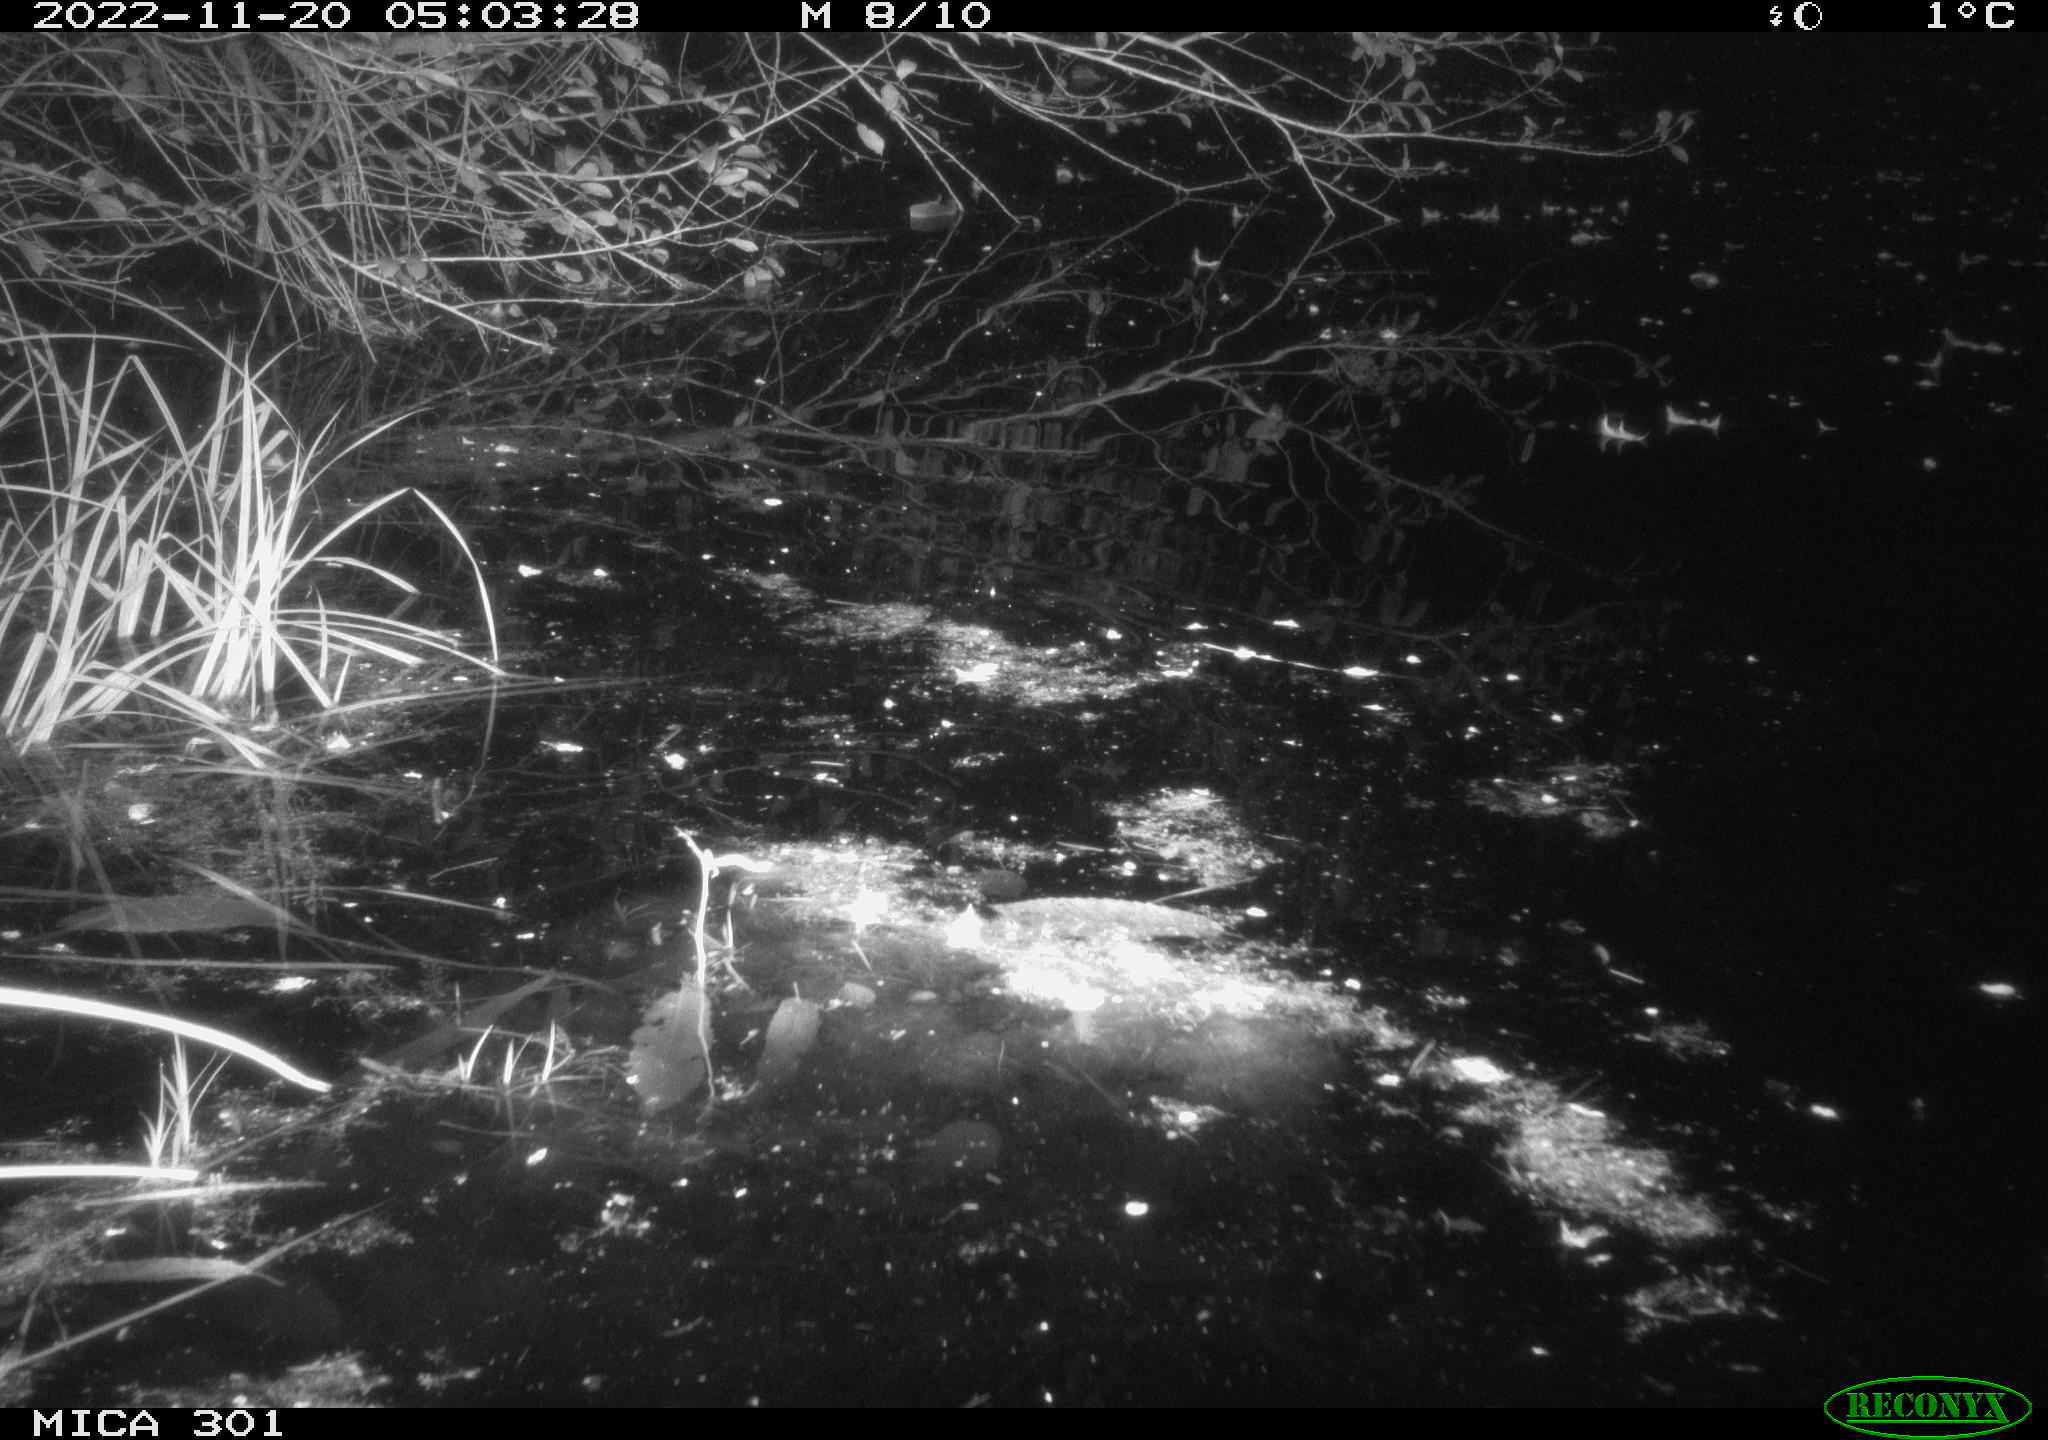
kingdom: Animalia
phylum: Chordata
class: Mammalia
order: Rodentia
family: Muridae
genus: Rattus
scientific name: Rattus norvegicus
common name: Brown rat
